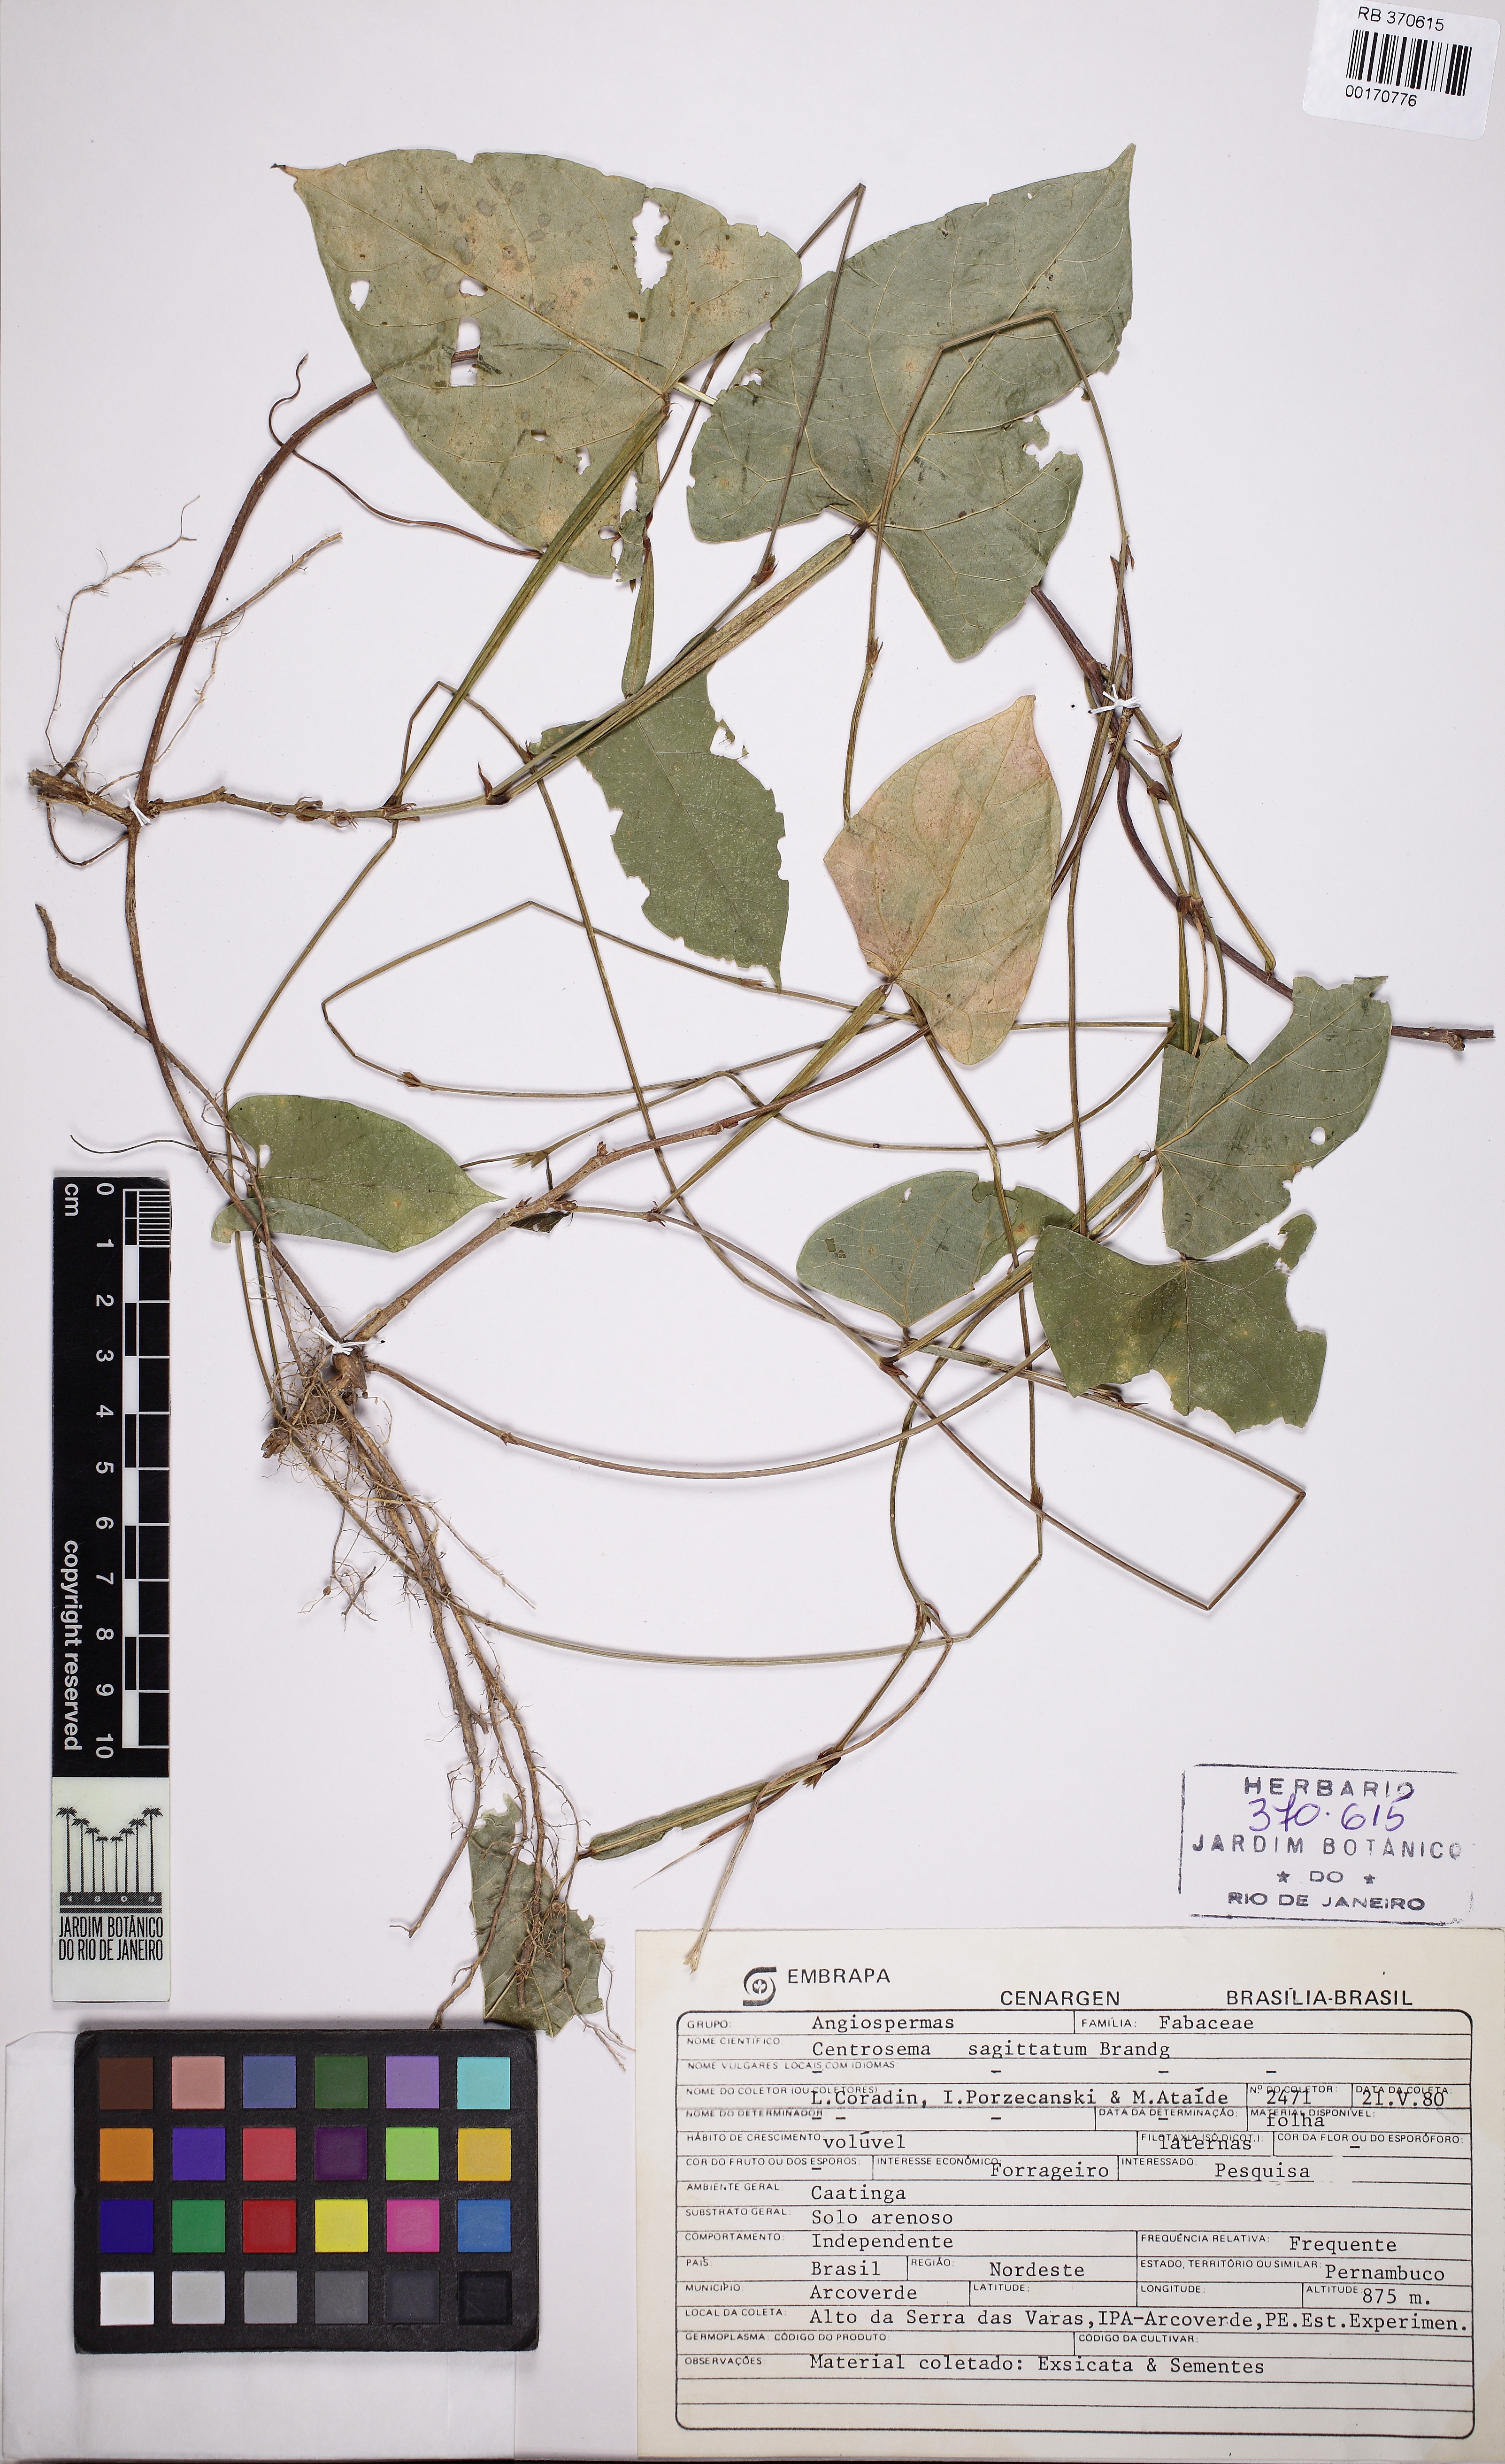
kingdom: Plantae
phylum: Tracheophyta
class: Magnoliopsida
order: Fabales
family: Fabaceae
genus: Centrosema
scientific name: Centrosema sagittatum
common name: Arrowleaf butterfly pea
